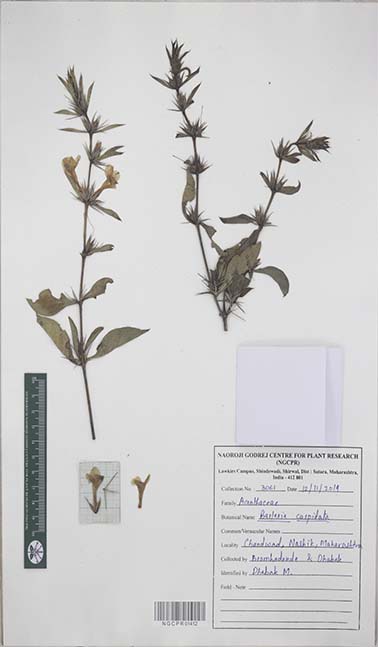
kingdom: Plantae
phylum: Tracheophyta
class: Magnoliopsida
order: Lamiales
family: Acanthaceae
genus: Barleria
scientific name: Barleria cuspidata
